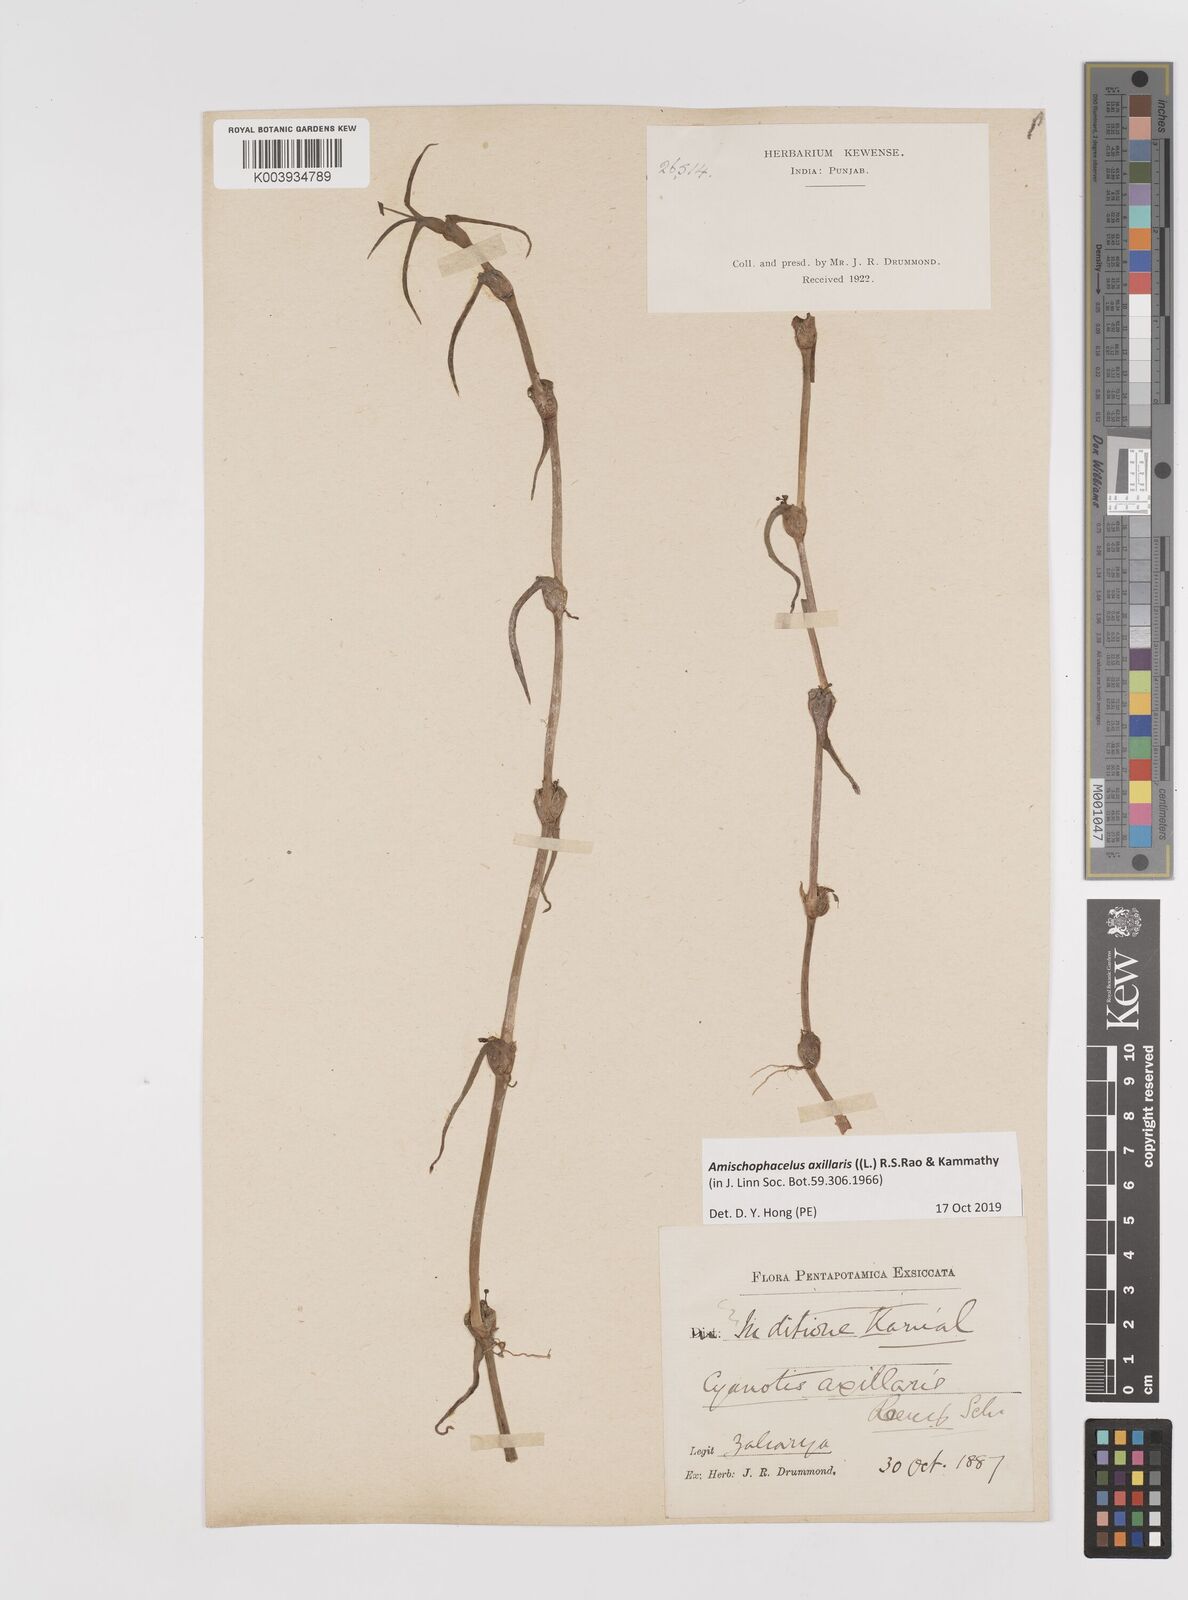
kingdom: Plantae
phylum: Tracheophyta
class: Liliopsida
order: Commelinales
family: Commelinaceae
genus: Cyanotis
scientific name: Cyanotis axillaris
